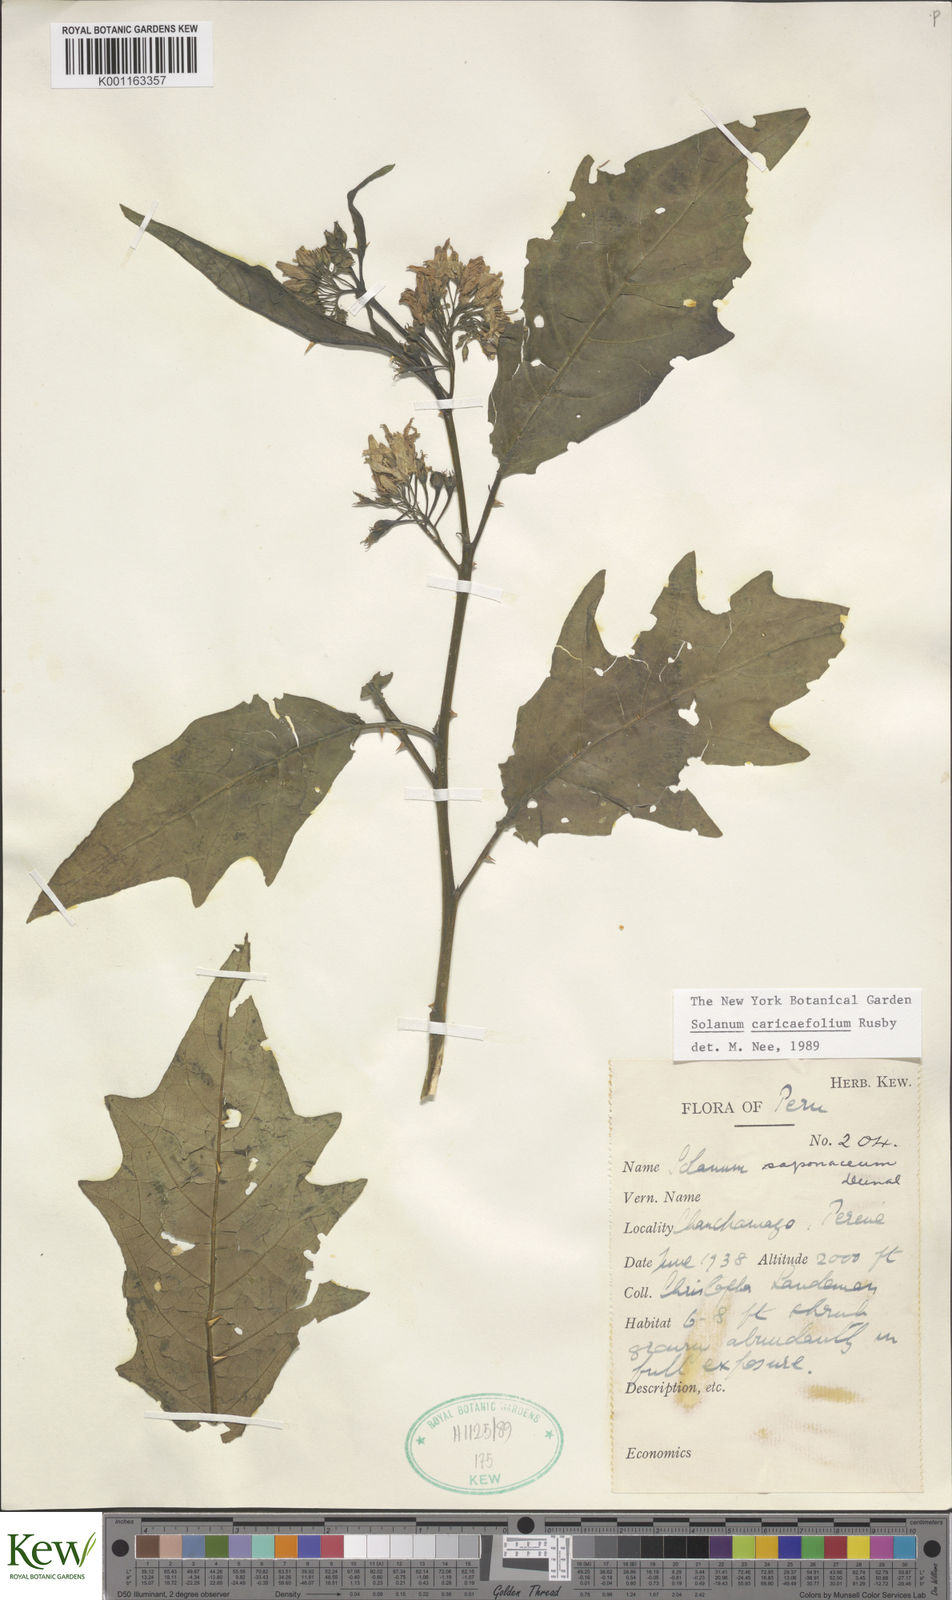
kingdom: Plantae
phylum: Tracheophyta
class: Magnoliopsida
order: Solanales
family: Solanaceae
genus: Solanum
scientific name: Solanum caricaefolium
